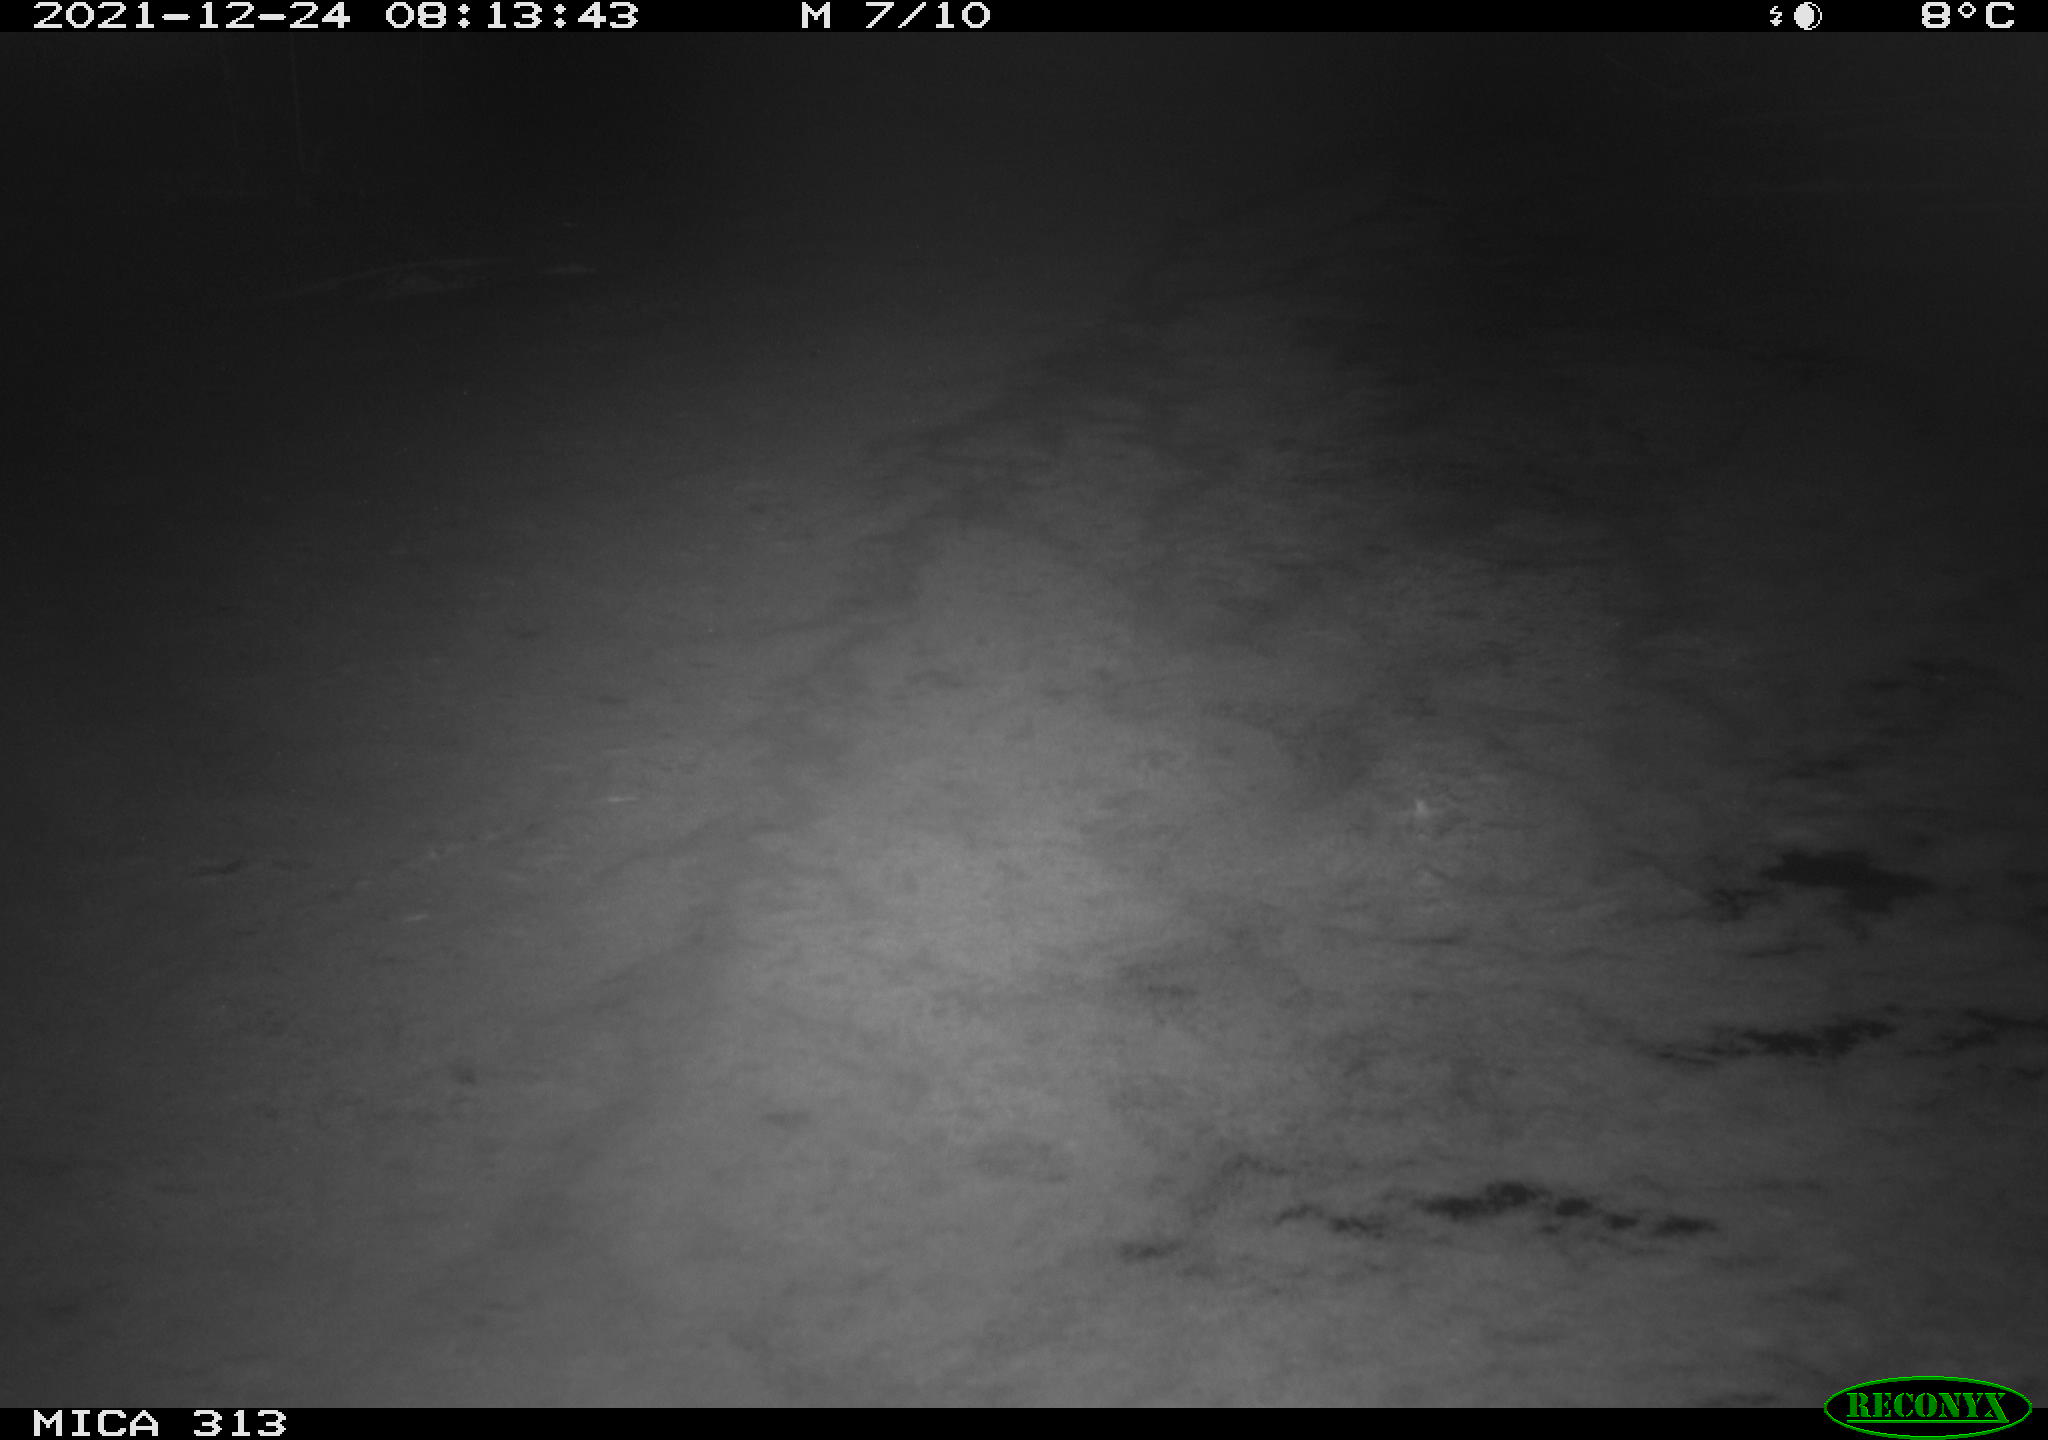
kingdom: Animalia
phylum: Chordata
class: Aves
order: Gruiformes
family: Rallidae
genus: Gallinula
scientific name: Gallinula chloropus
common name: Common moorhen
